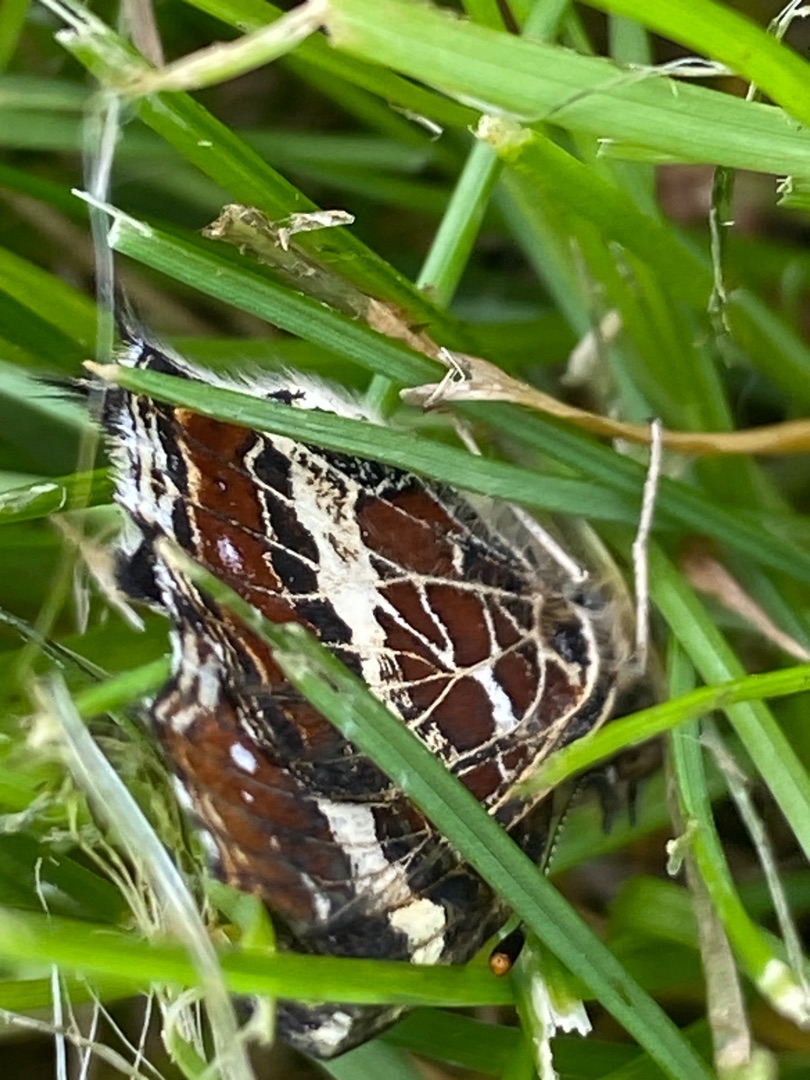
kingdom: Animalia
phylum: Arthropoda
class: Insecta
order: Lepidoptera
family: Nymphalidae
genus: Araschnia
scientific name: Araschnia levana
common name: Nældesommerfugl
